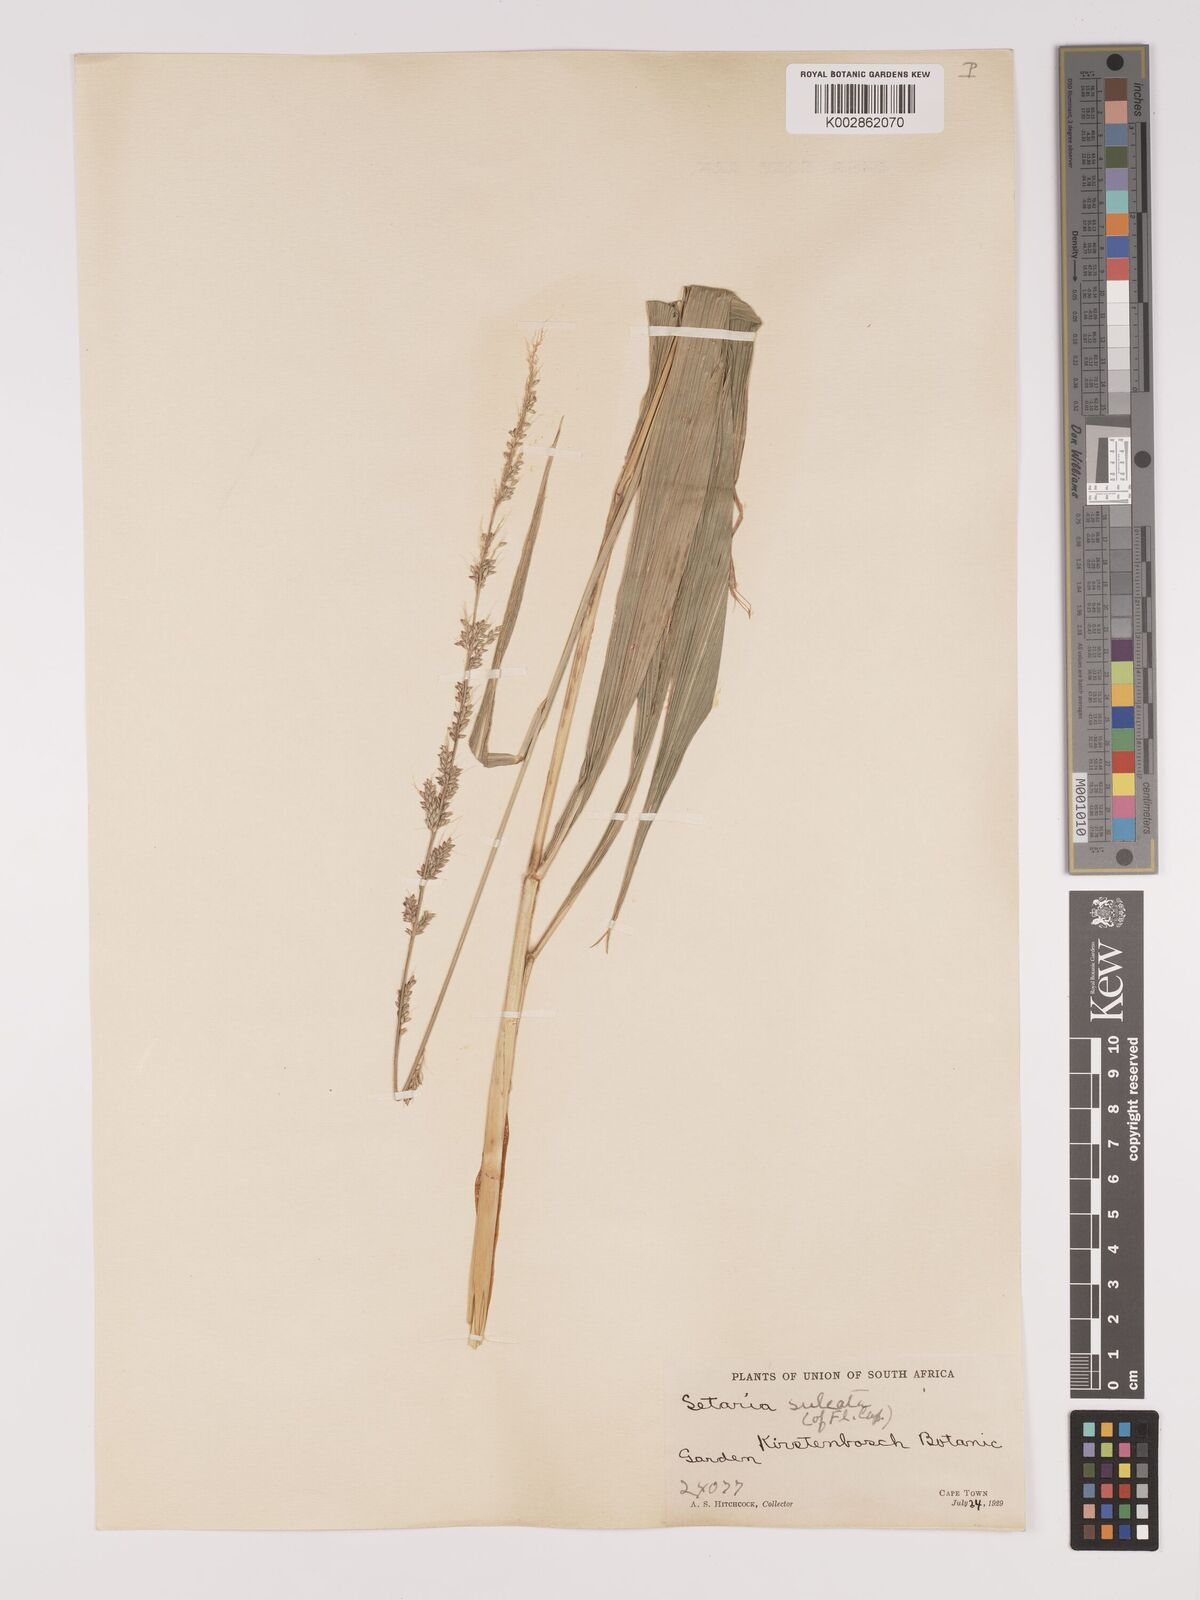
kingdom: Plantae
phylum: Tracheophyta
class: Liliopsida
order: Poales
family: Poaceae
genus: Setaria
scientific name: Setaria megaphylla
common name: Bigleaf bristlegrass
